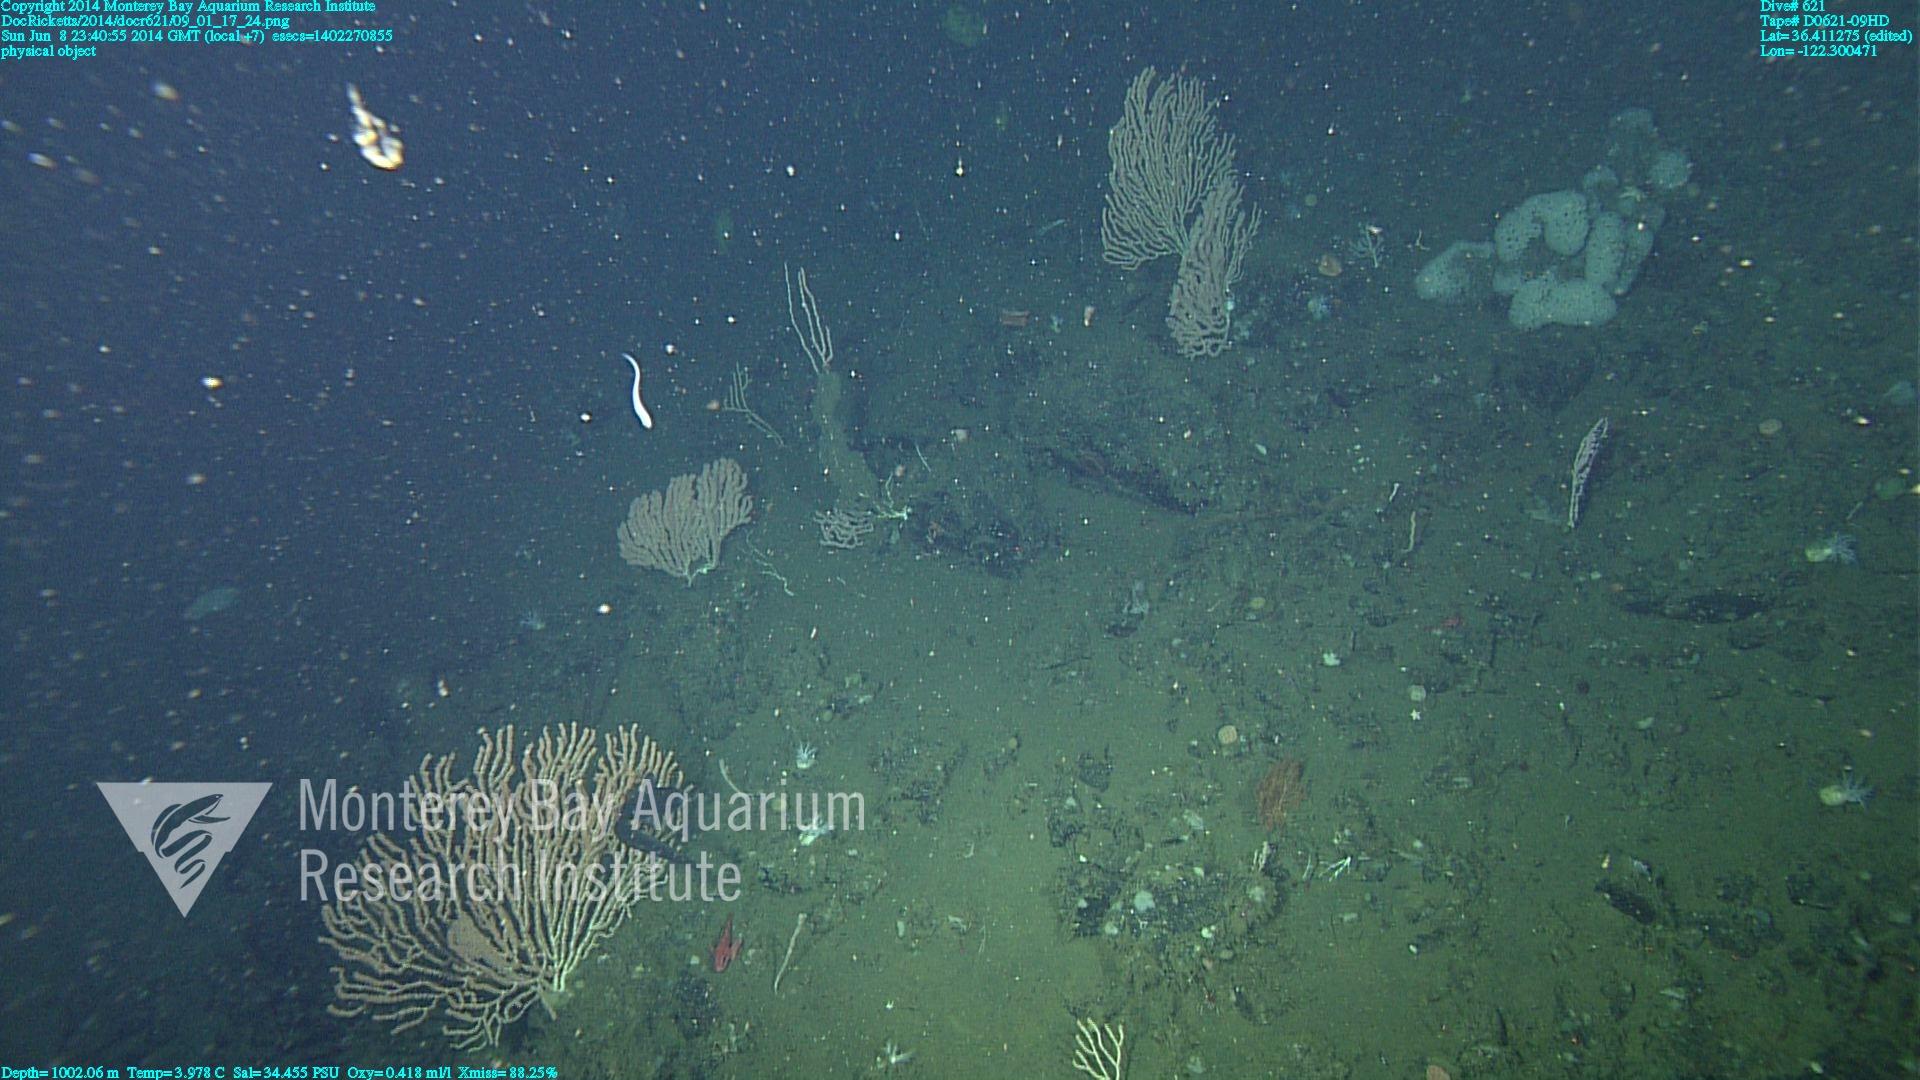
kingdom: Animalia
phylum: Cnidaria
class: Anthozoa
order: Scleralcyonacea
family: Keratoisididae
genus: Keratoisis
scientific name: Keratoisis
